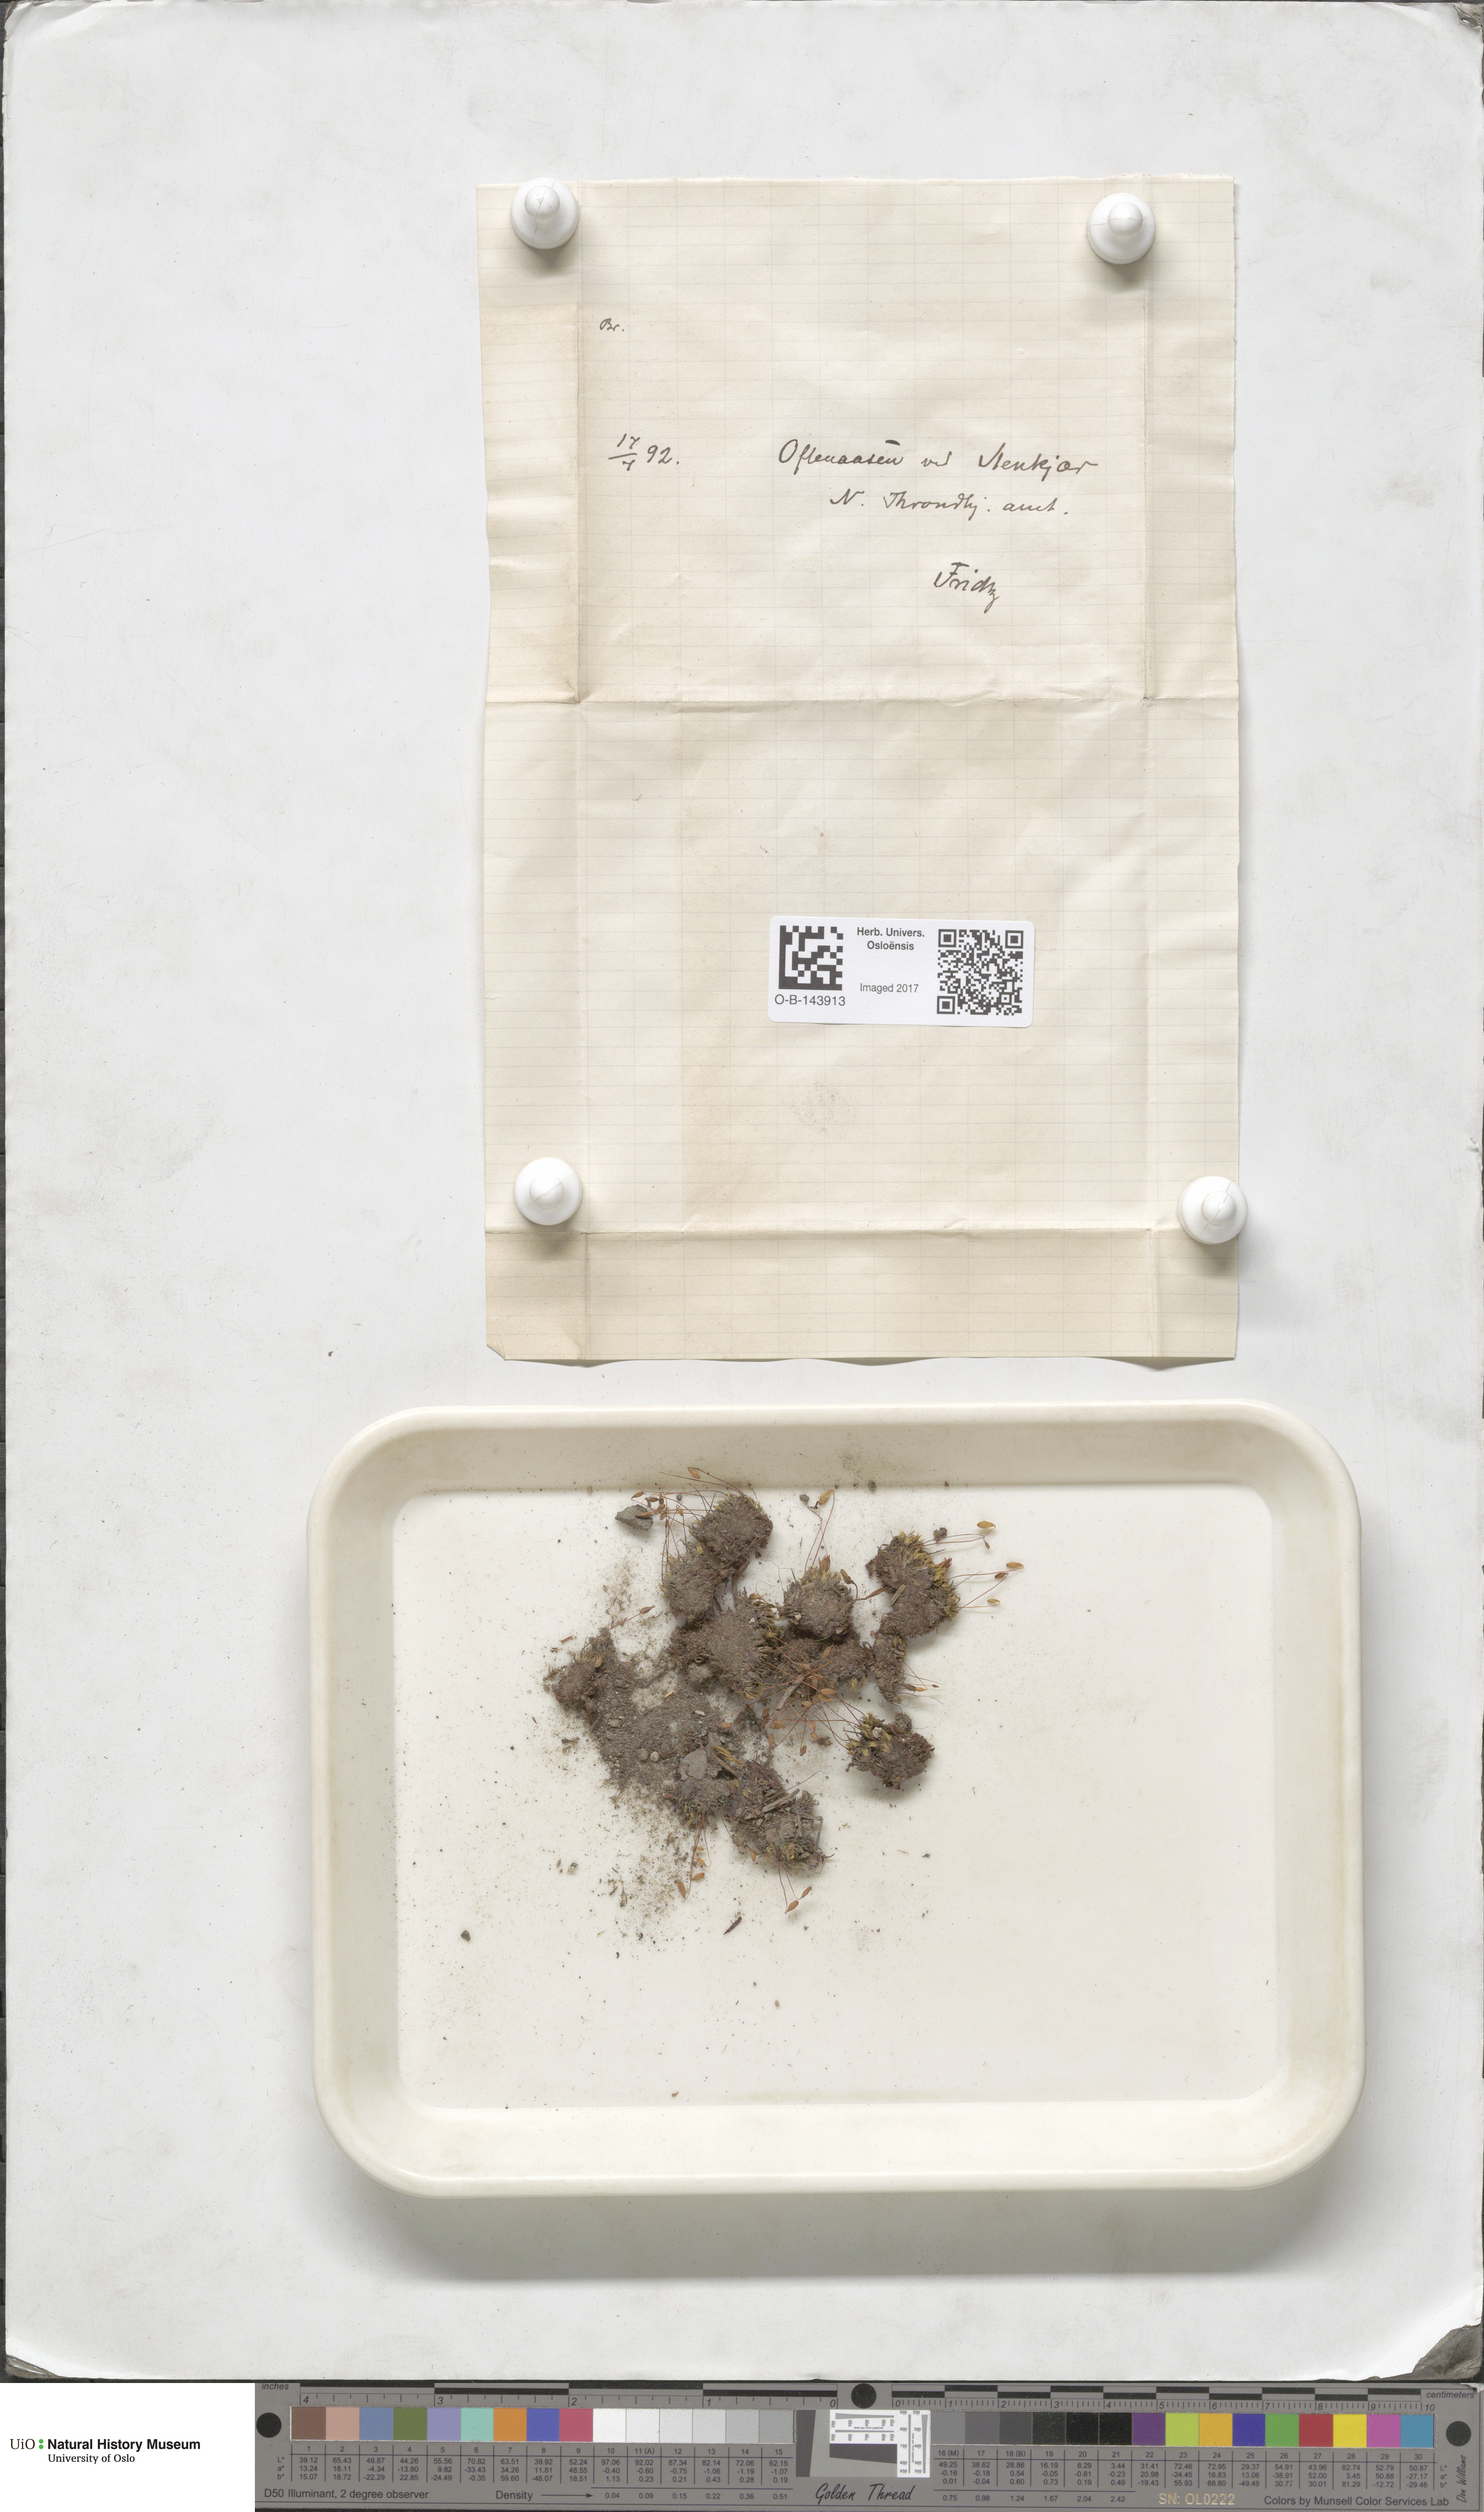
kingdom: Plantae
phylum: Bryophyta
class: Bryopsida
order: Bryales
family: Bryaceae
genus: Bryum
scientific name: Bryum
